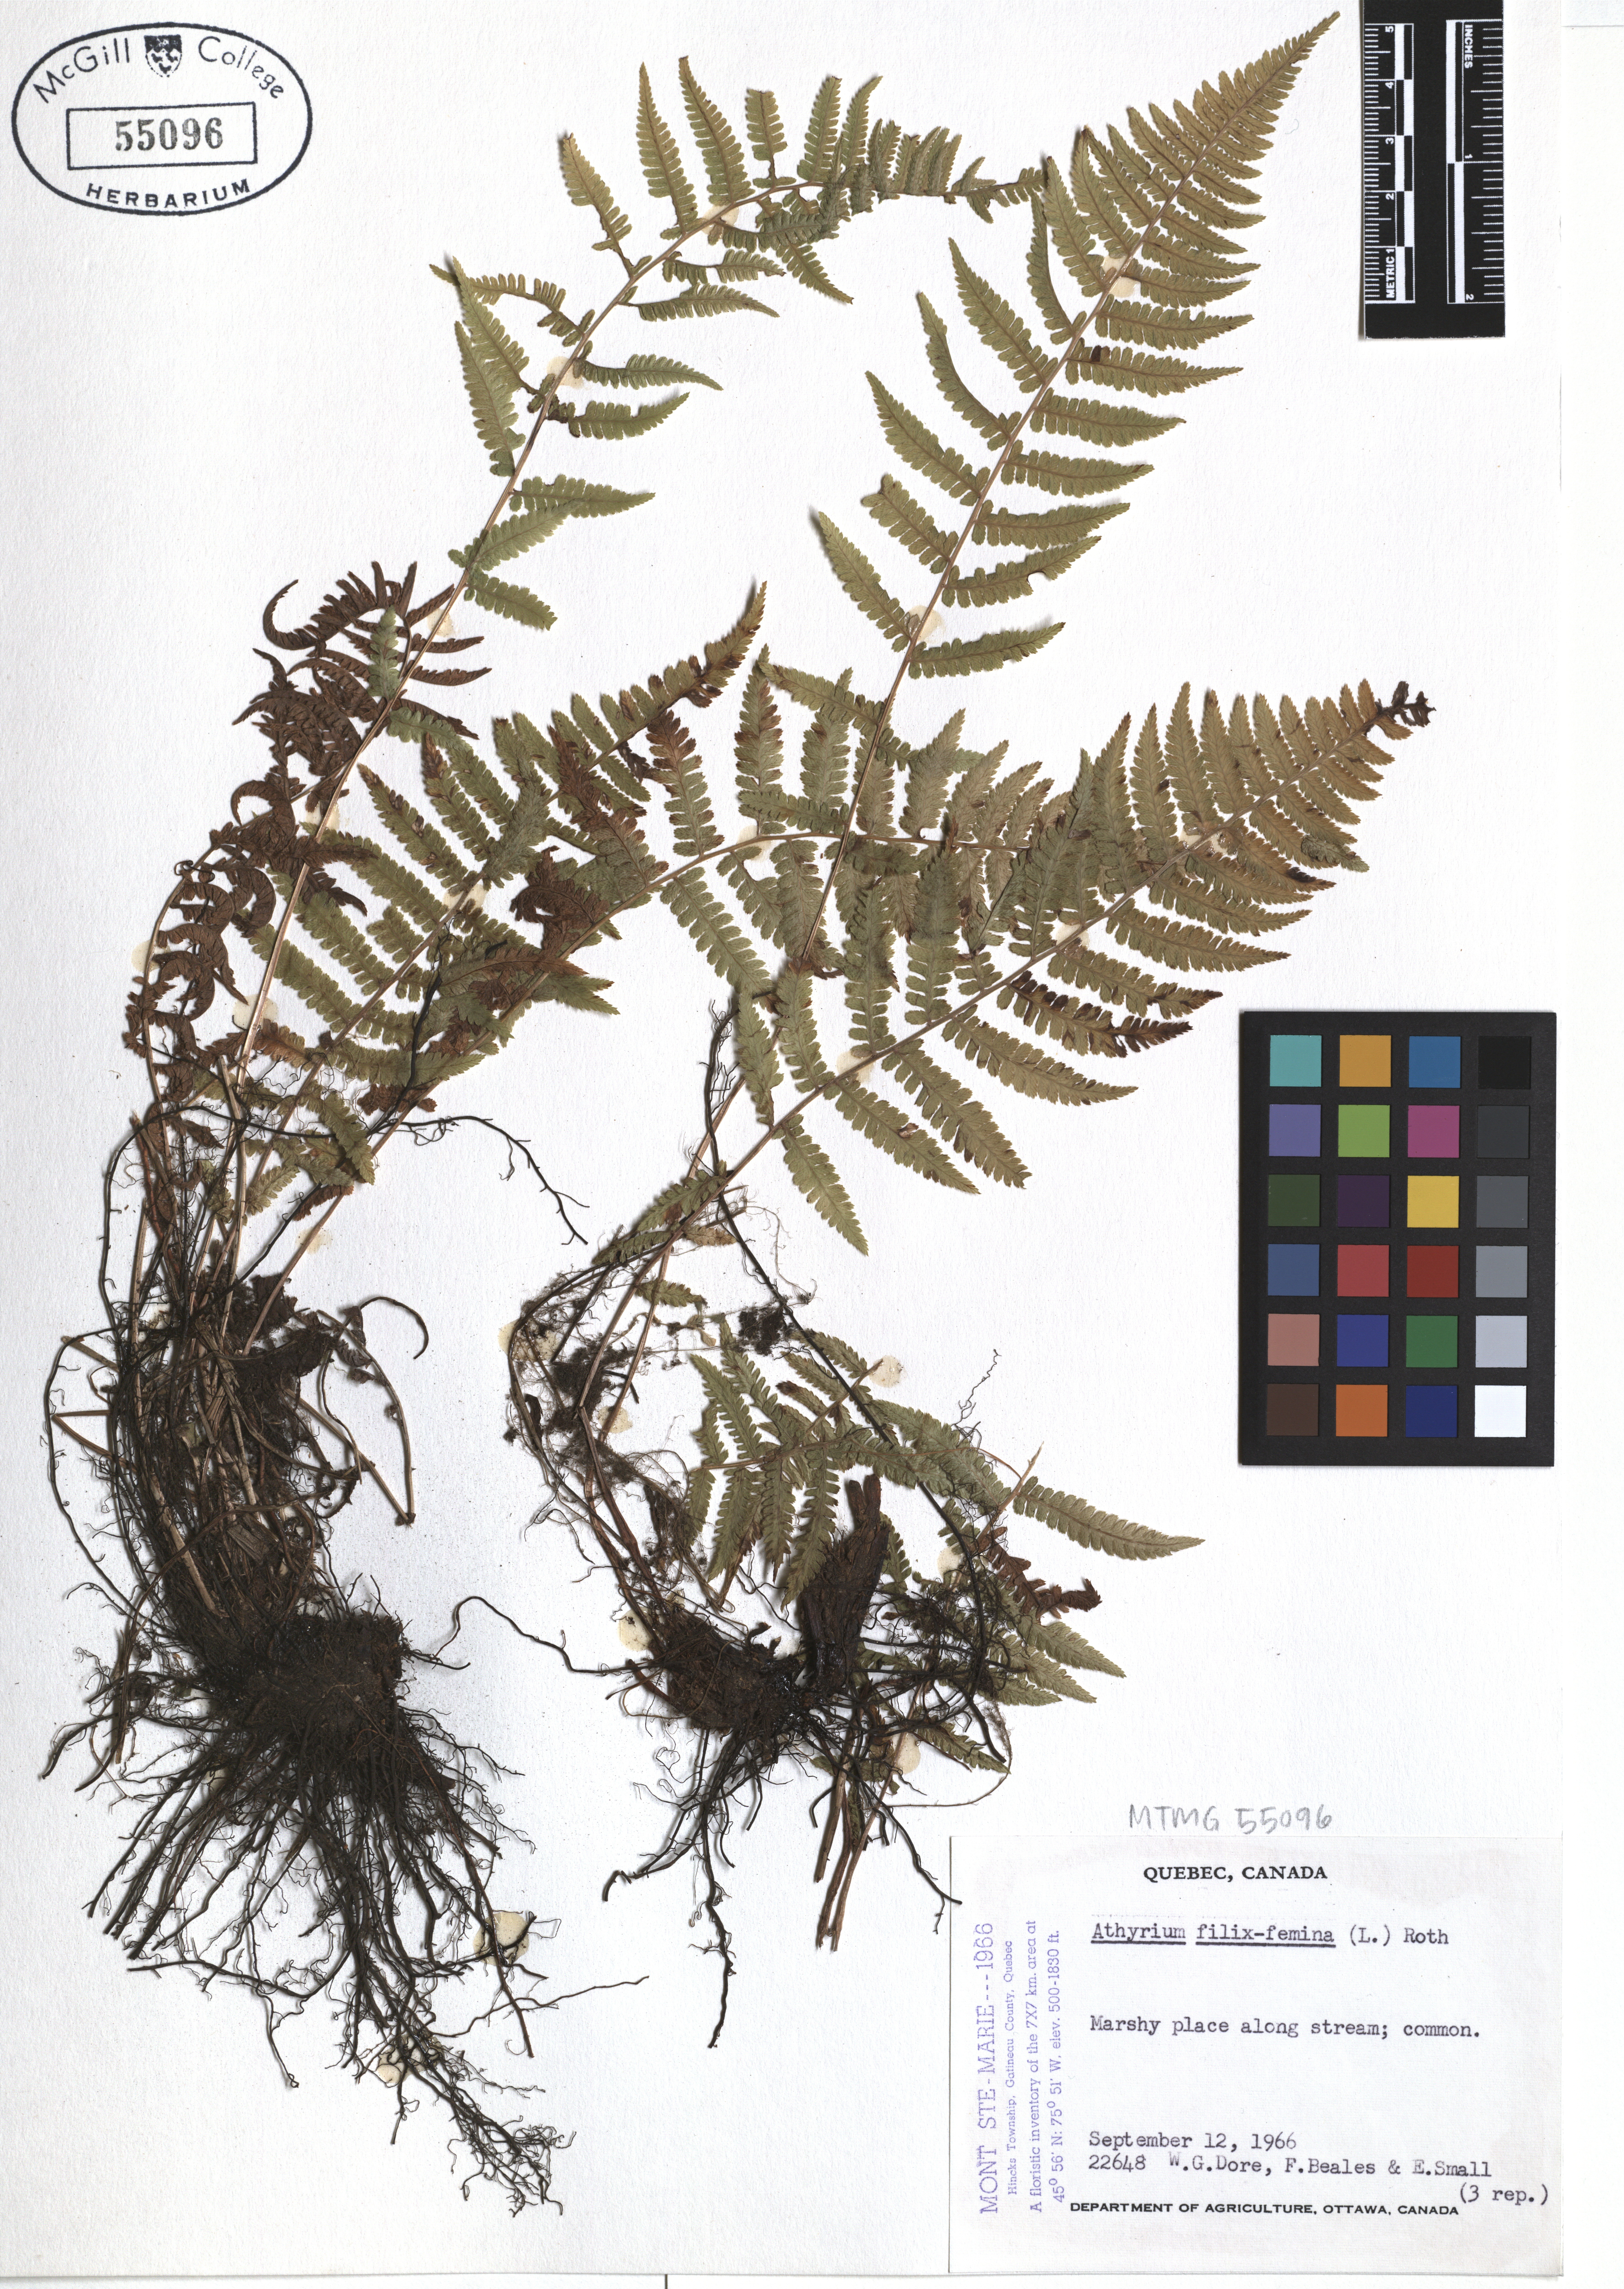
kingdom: Plantae
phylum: Tracheophyta
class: Polypodiopsida
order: Polypodiales
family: Athyriaceae
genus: Athyrium
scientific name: Athyrium filix-femina
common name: Lady fern
